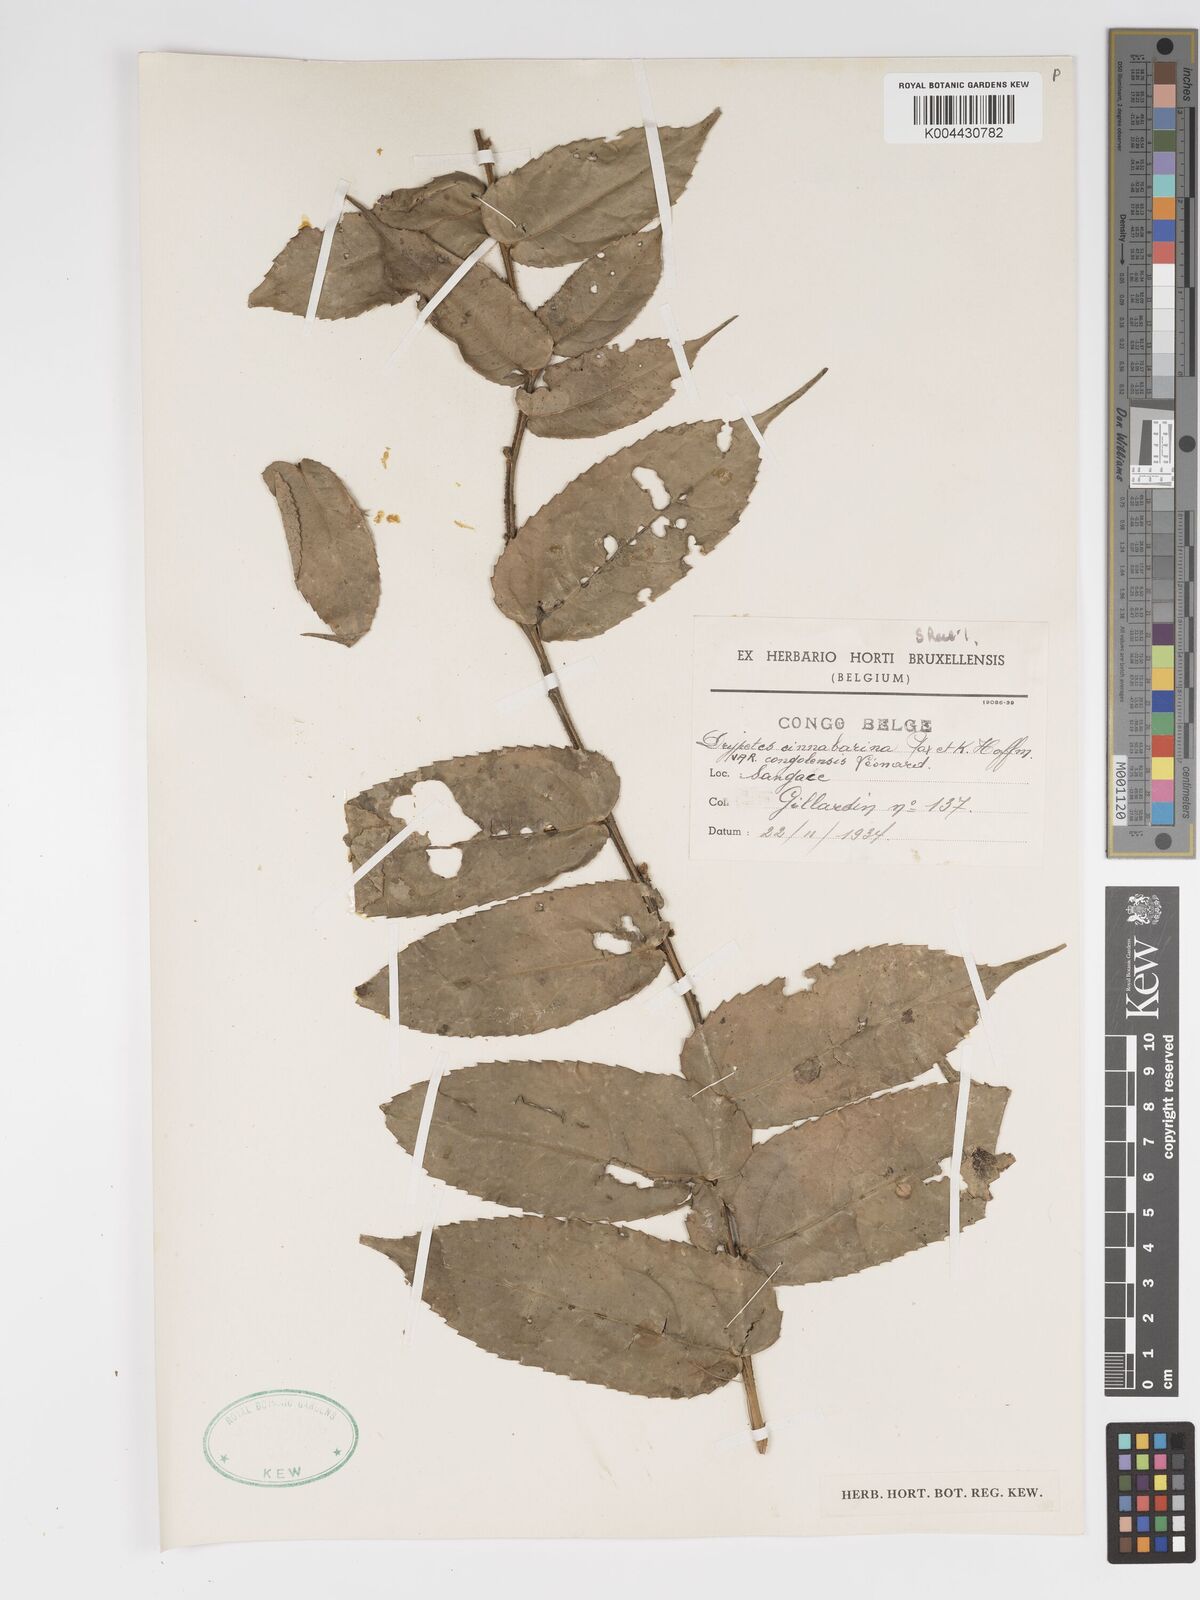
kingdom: Plantae
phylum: Tracheophyta
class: Magnoliopsida
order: Malpighiales
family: Putranjivaceae
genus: Drypetes
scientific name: Drypetes cinnabarina
